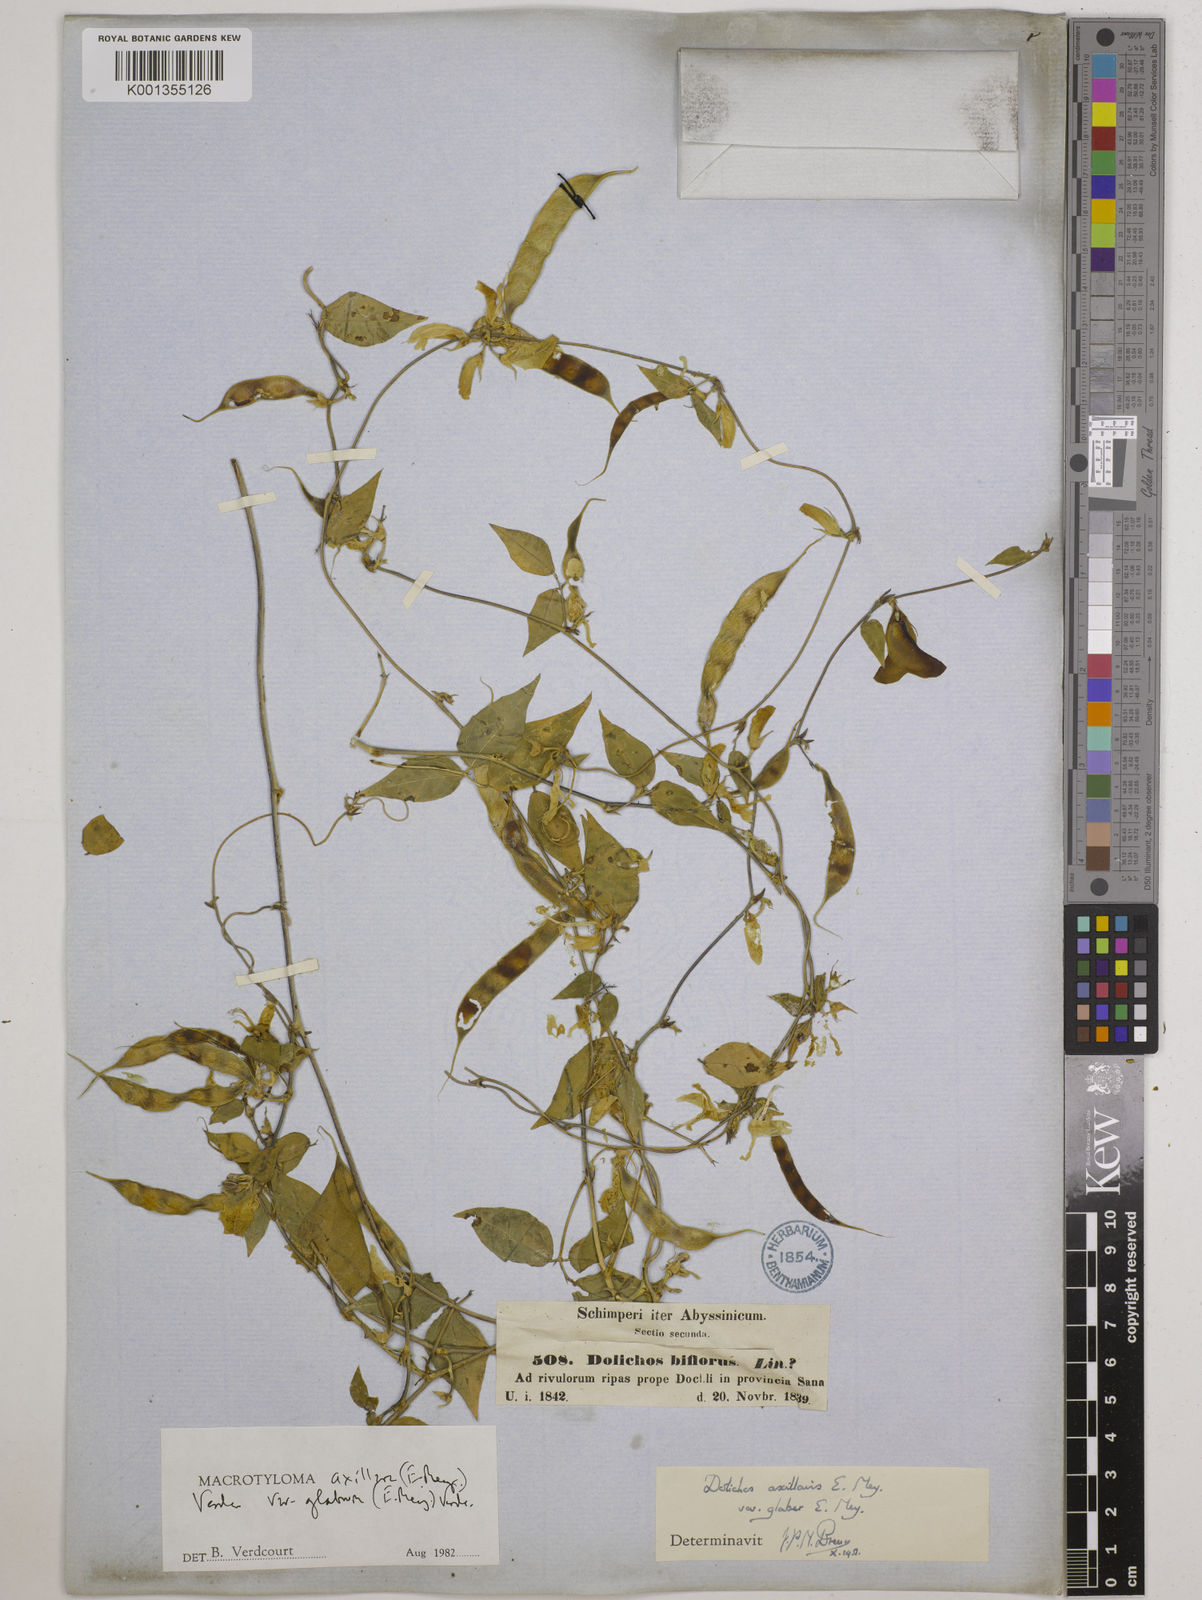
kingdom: Plantae
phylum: Tracheophyta
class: Magnoliopsida
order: Fabales
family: Fabaceae
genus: Macrotyloma
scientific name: Macrotyloma
